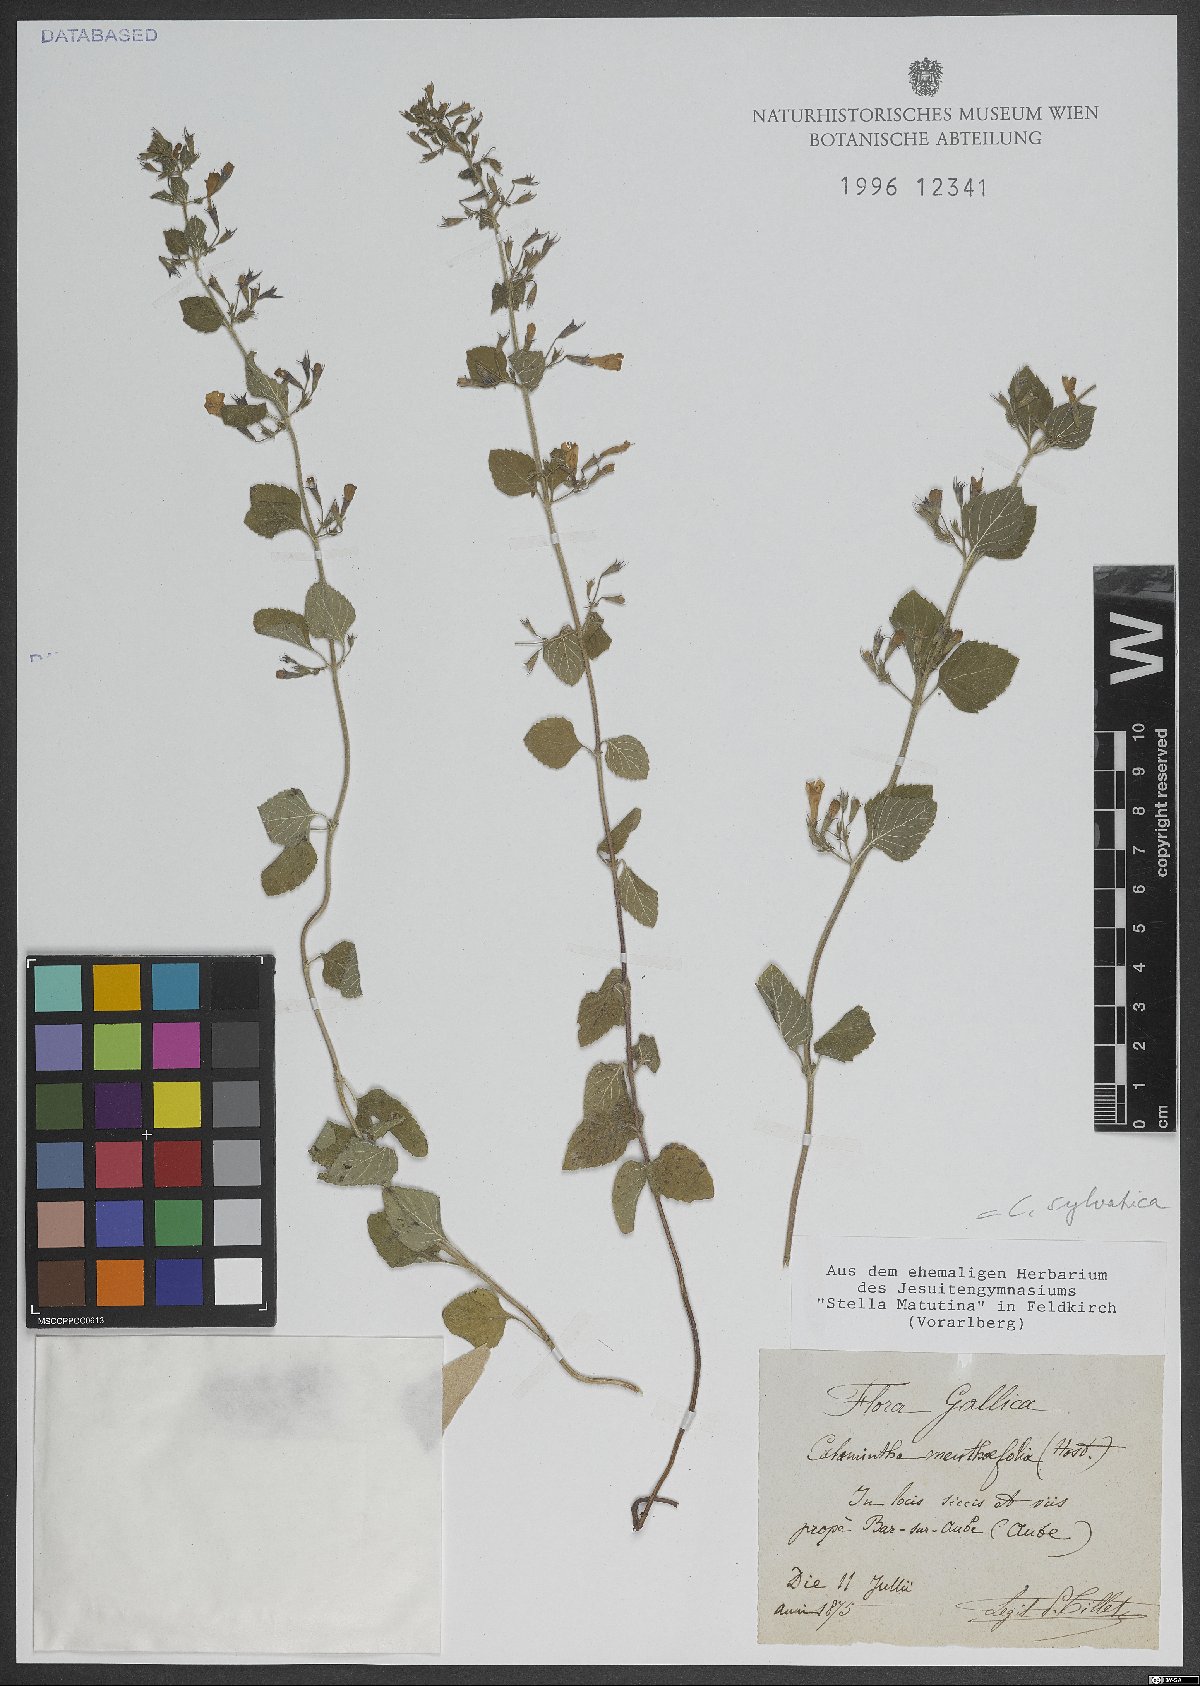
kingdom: Plantae
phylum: Tracheophyta
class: Magnoliopsida
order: Lamiales
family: Lamiaceae
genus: Clinopodium
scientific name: Clinopodium menthifolium
